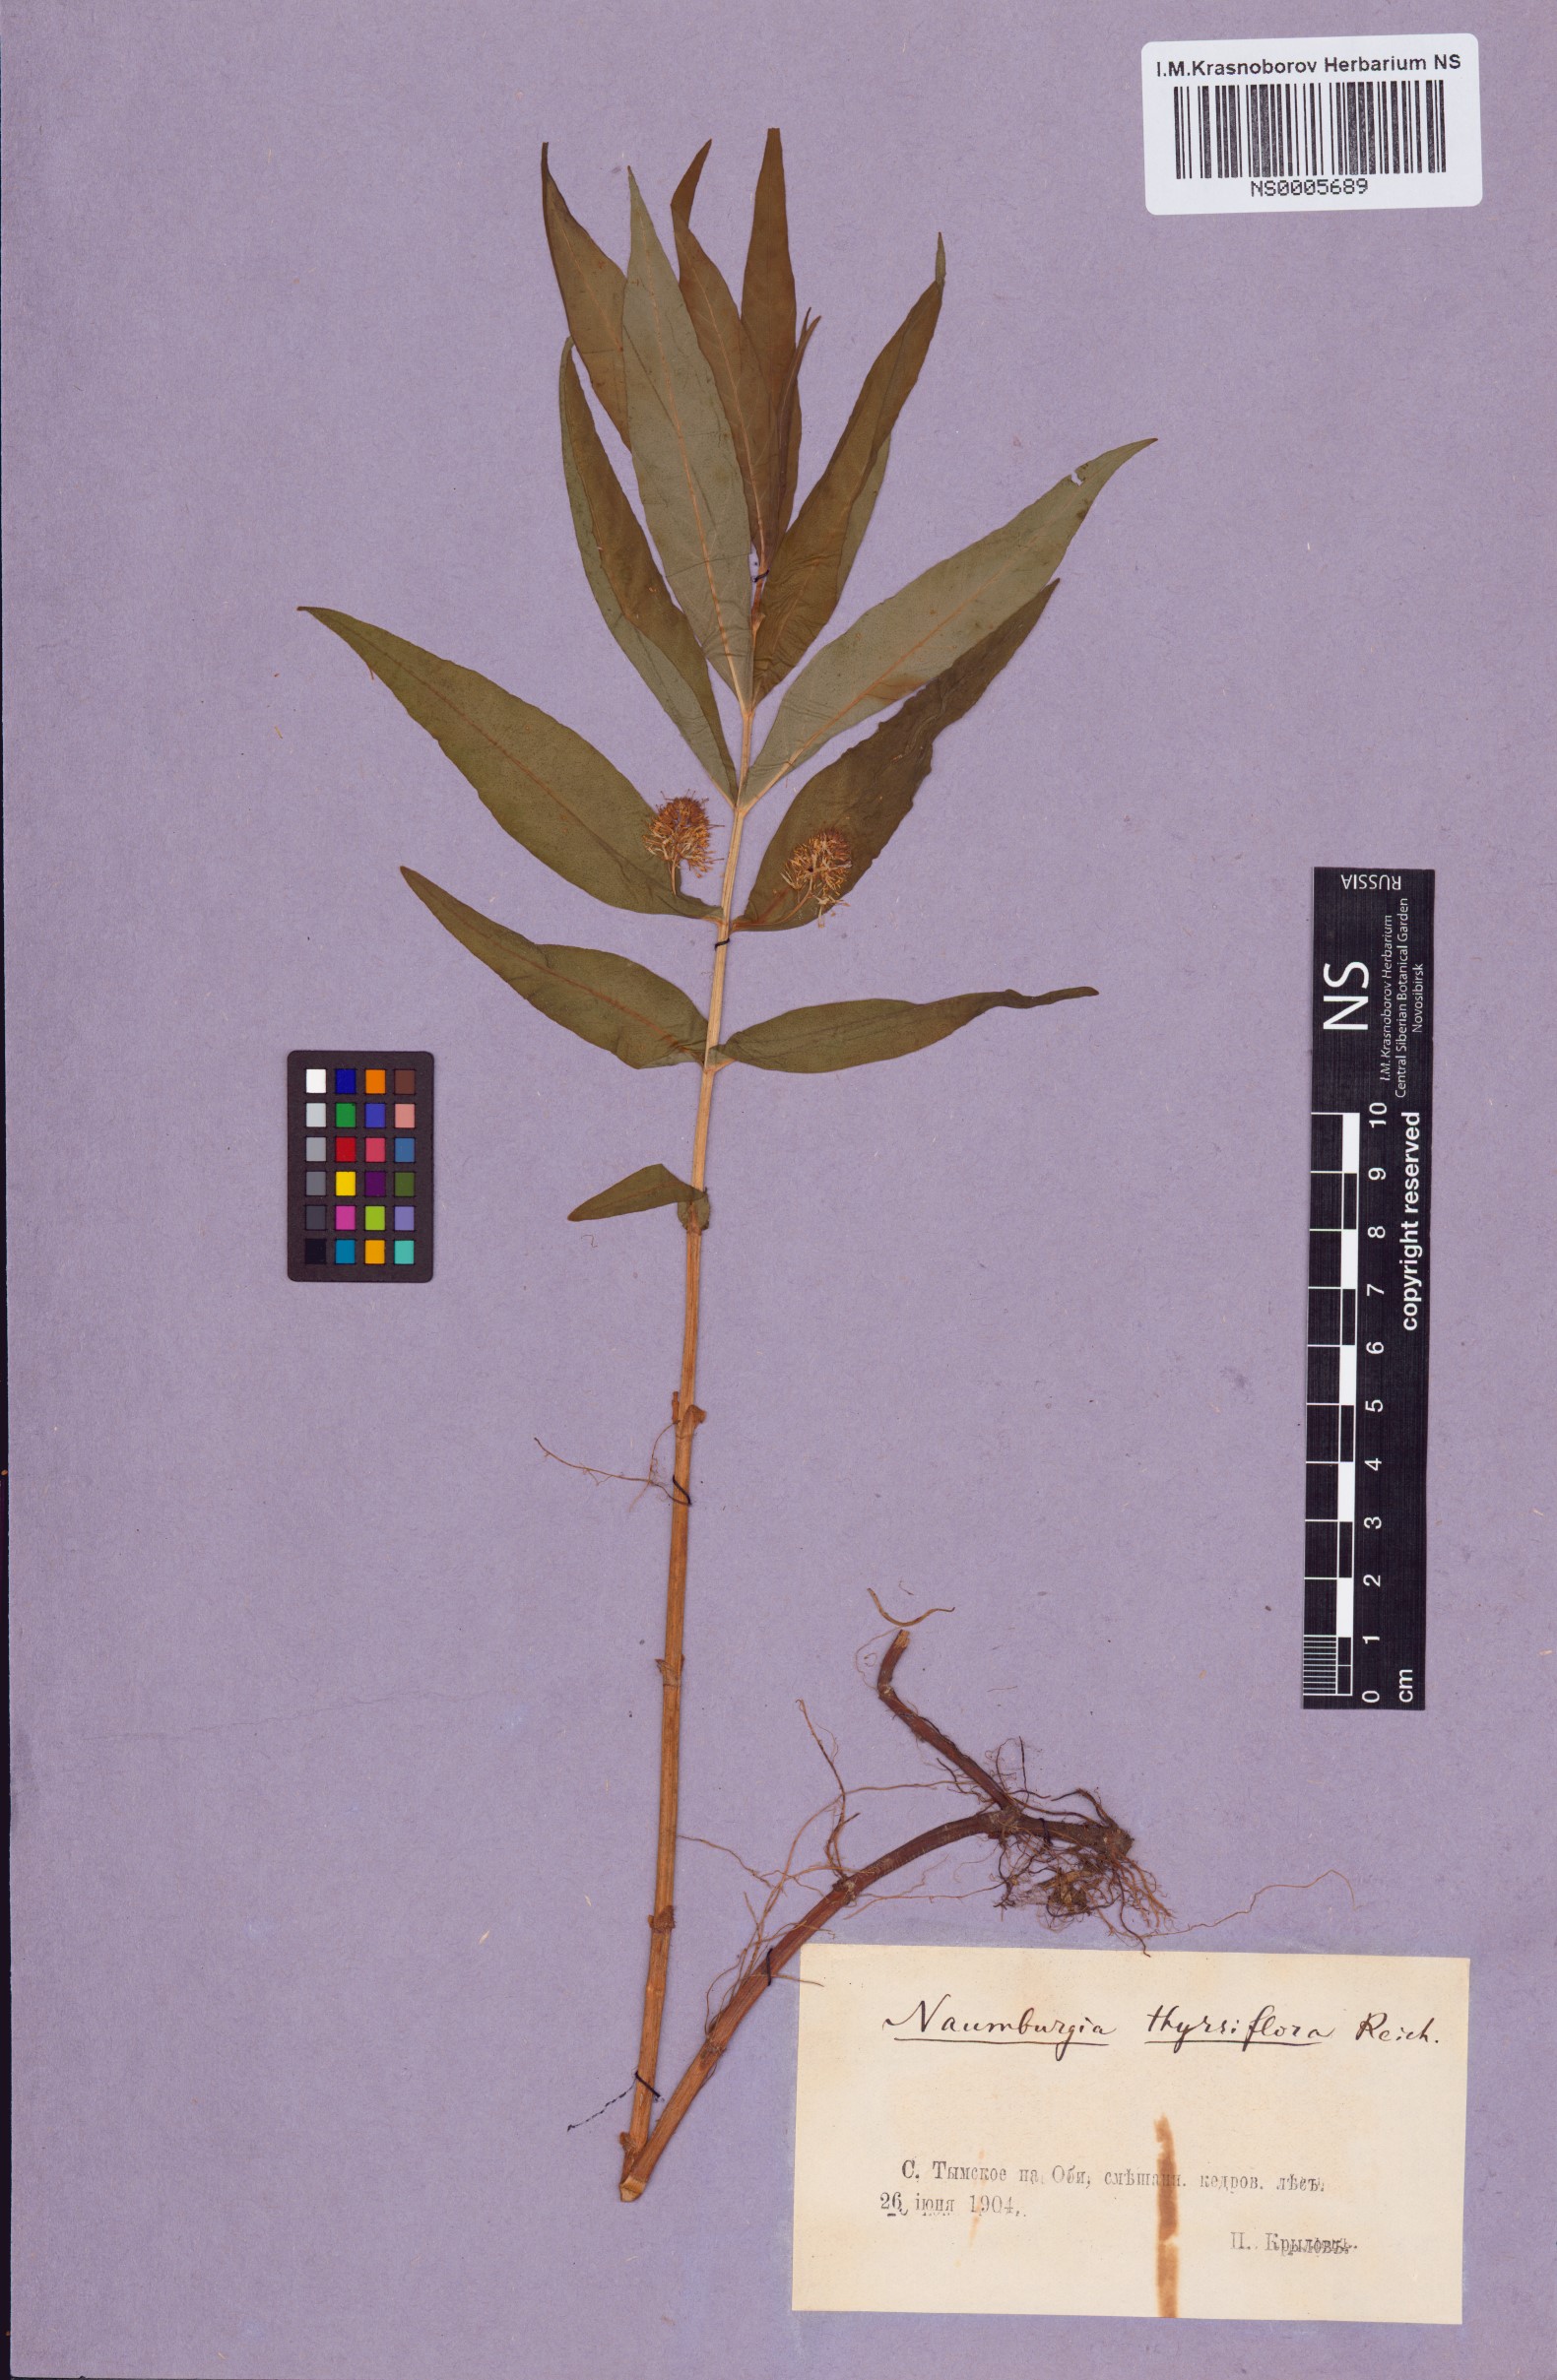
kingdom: Plantae
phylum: Tracheophyta
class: Magnoliopsida
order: Ericales
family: Primulaceae
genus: Lysimachia
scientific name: Lysimachia thyrsiflora
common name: Tufted loosestrife
